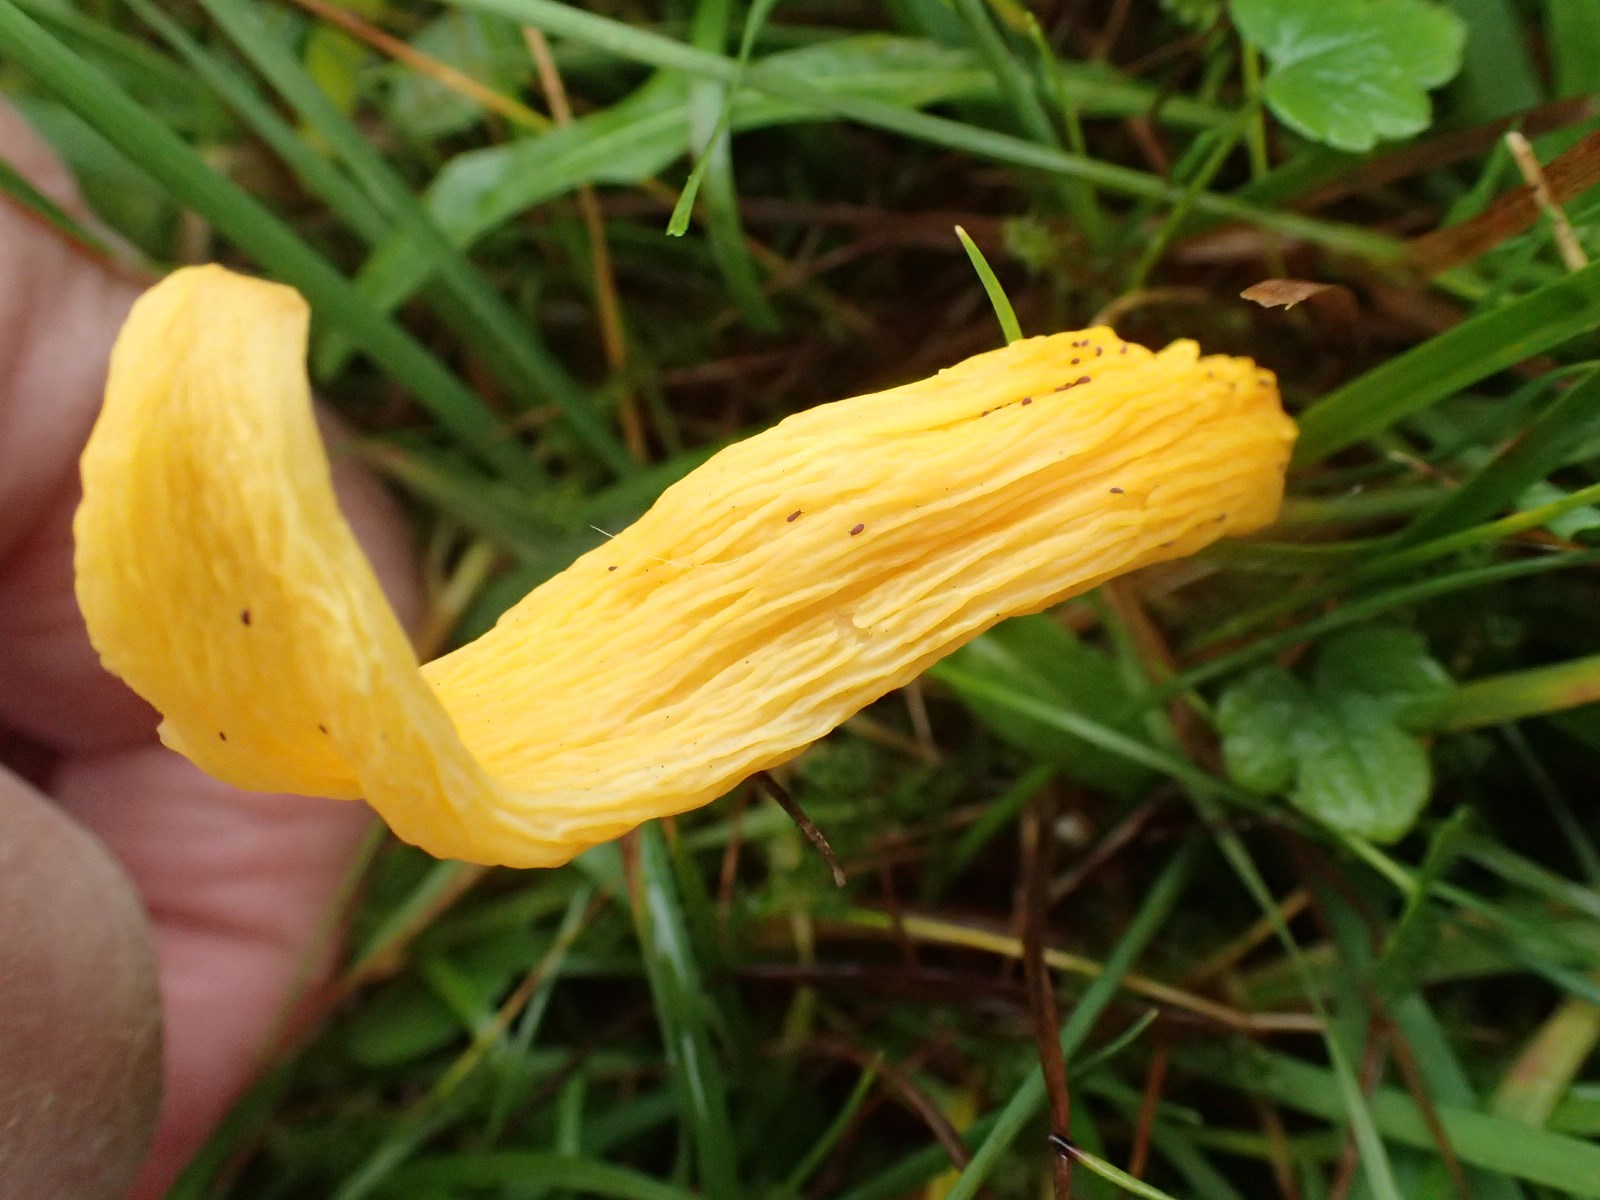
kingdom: Fungi
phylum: Basidiomycota
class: Agaricomycetes
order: Agaricales
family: Clavariaceae
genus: Clavulinopsis
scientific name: Clavulinopsis helvola
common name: orangegul køllesvamp
